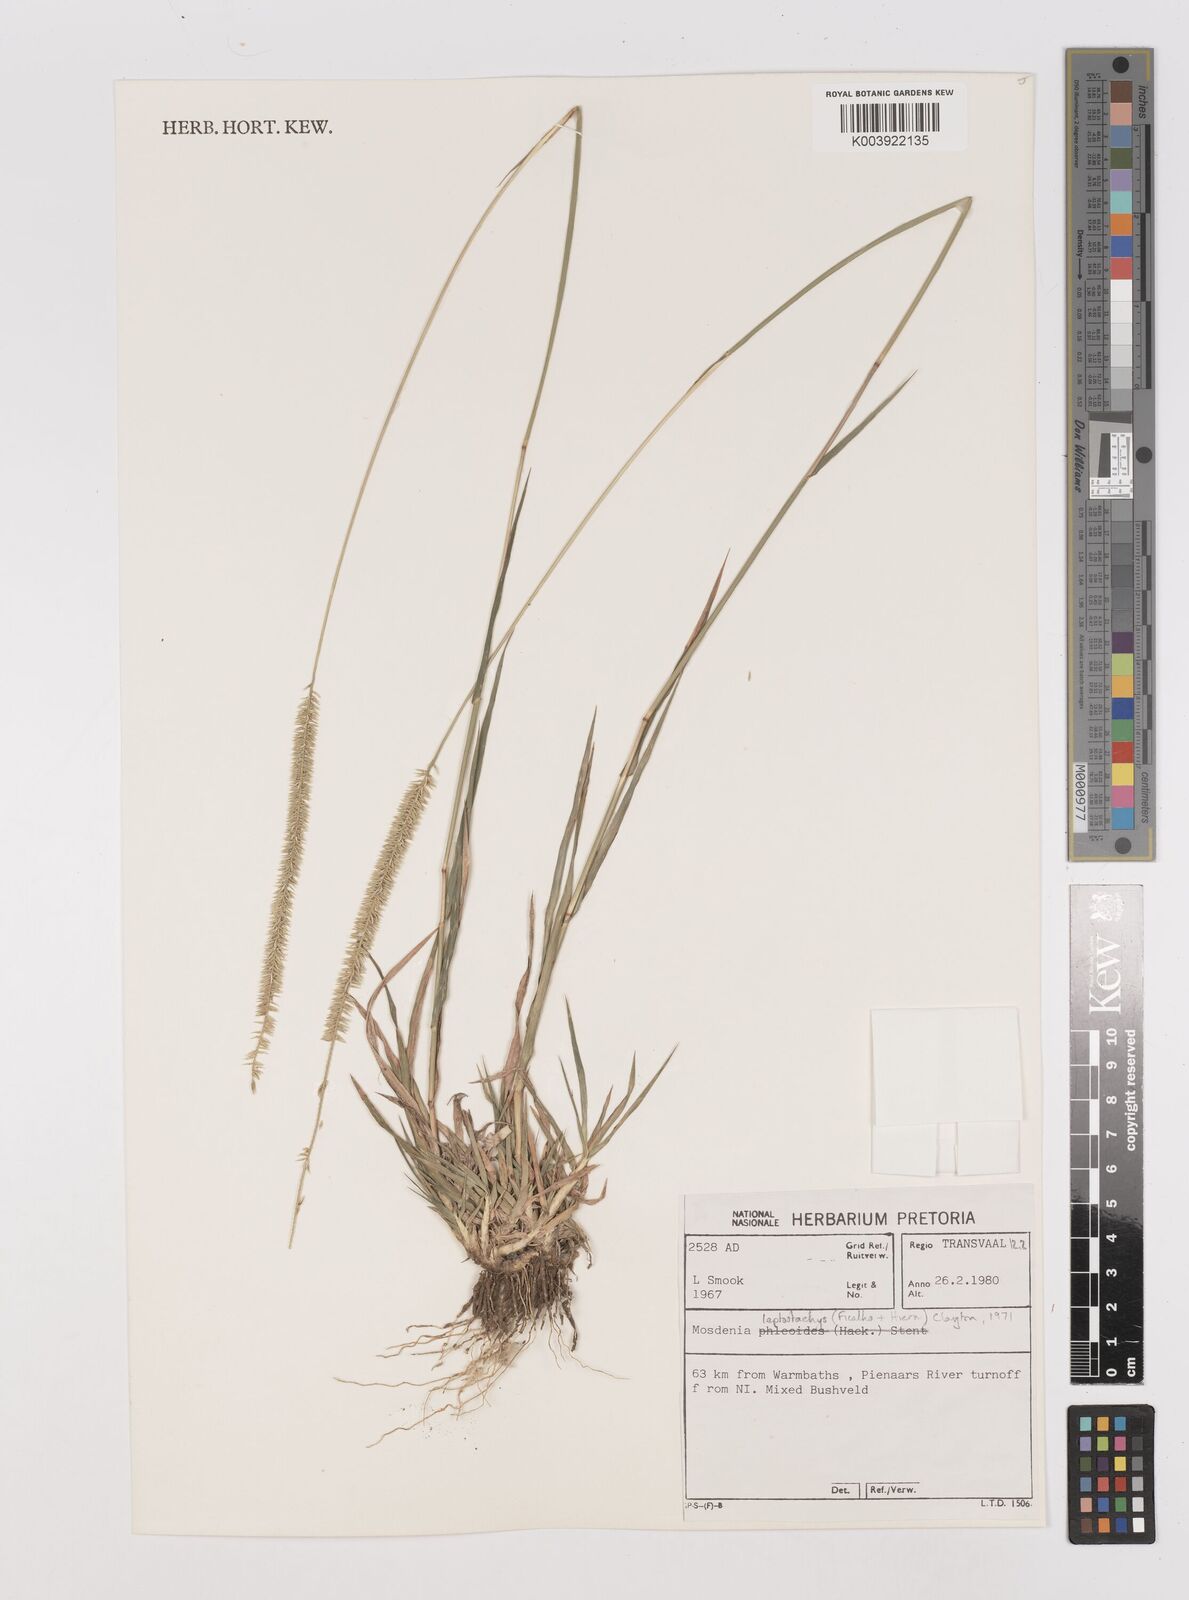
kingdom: Plantae
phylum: Tracheophyta
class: Liliopsida
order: Poales
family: Poaceae
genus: Mosdenia
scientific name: Mosdenia leptostachys
